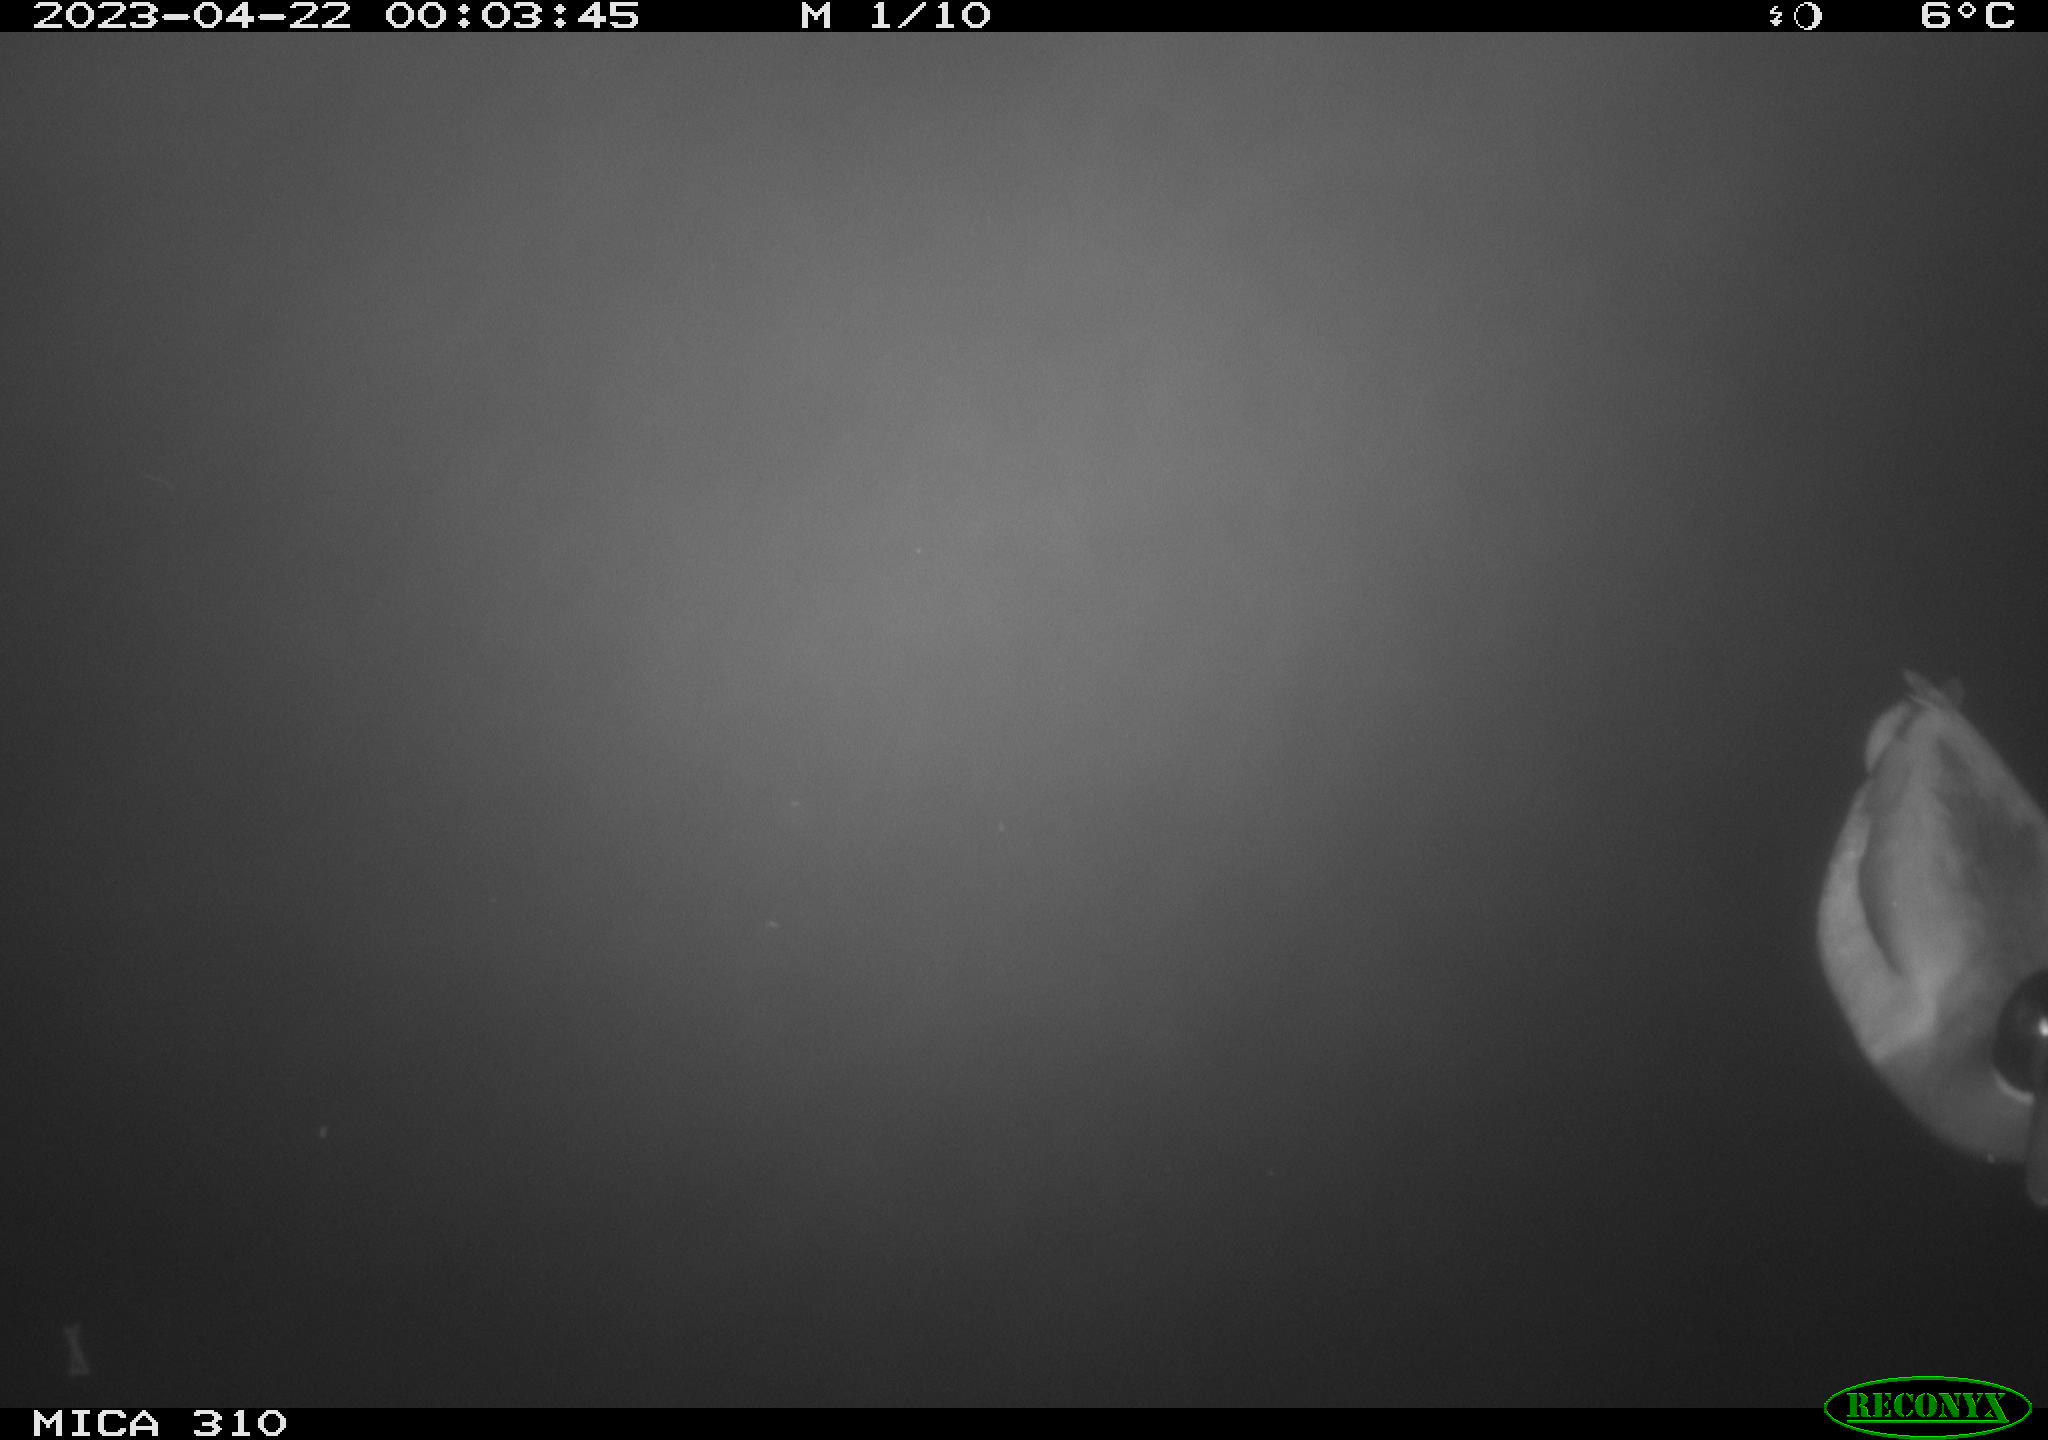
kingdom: Animalia
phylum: Chordata
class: Aves
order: Anseriformes
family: Anatidae
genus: Anas
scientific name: Anas
